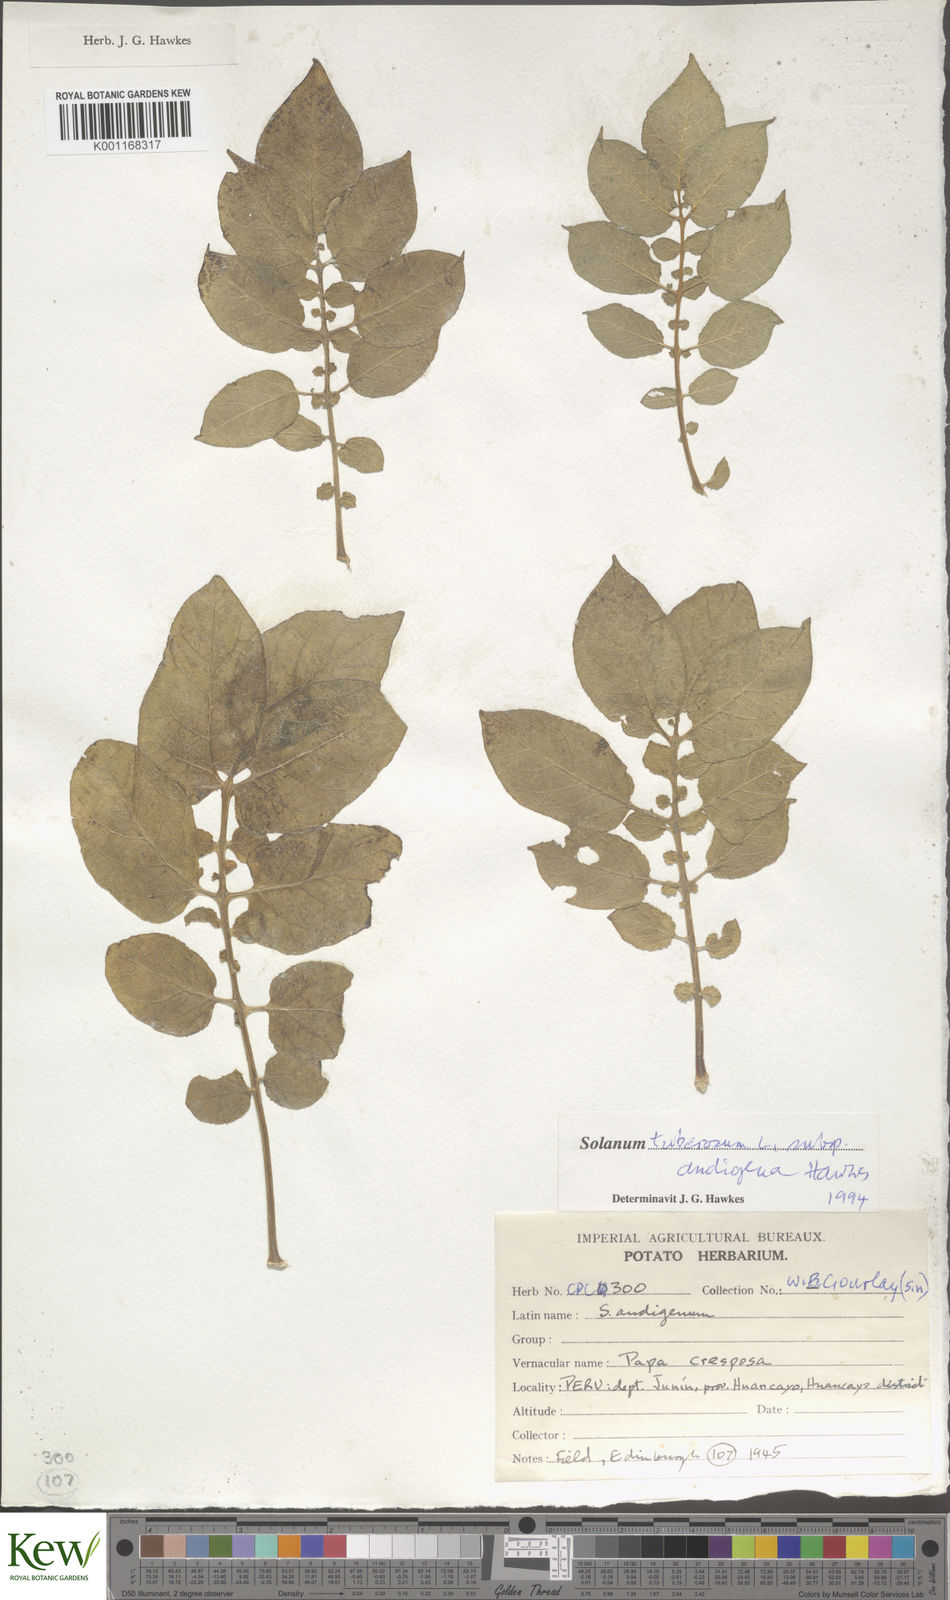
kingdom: Plantae
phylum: Tracheophyta
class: Magnoliopsida
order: Solanales
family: Solanaceae
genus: Solanum
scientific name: Solanum tuberosum
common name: Potato
